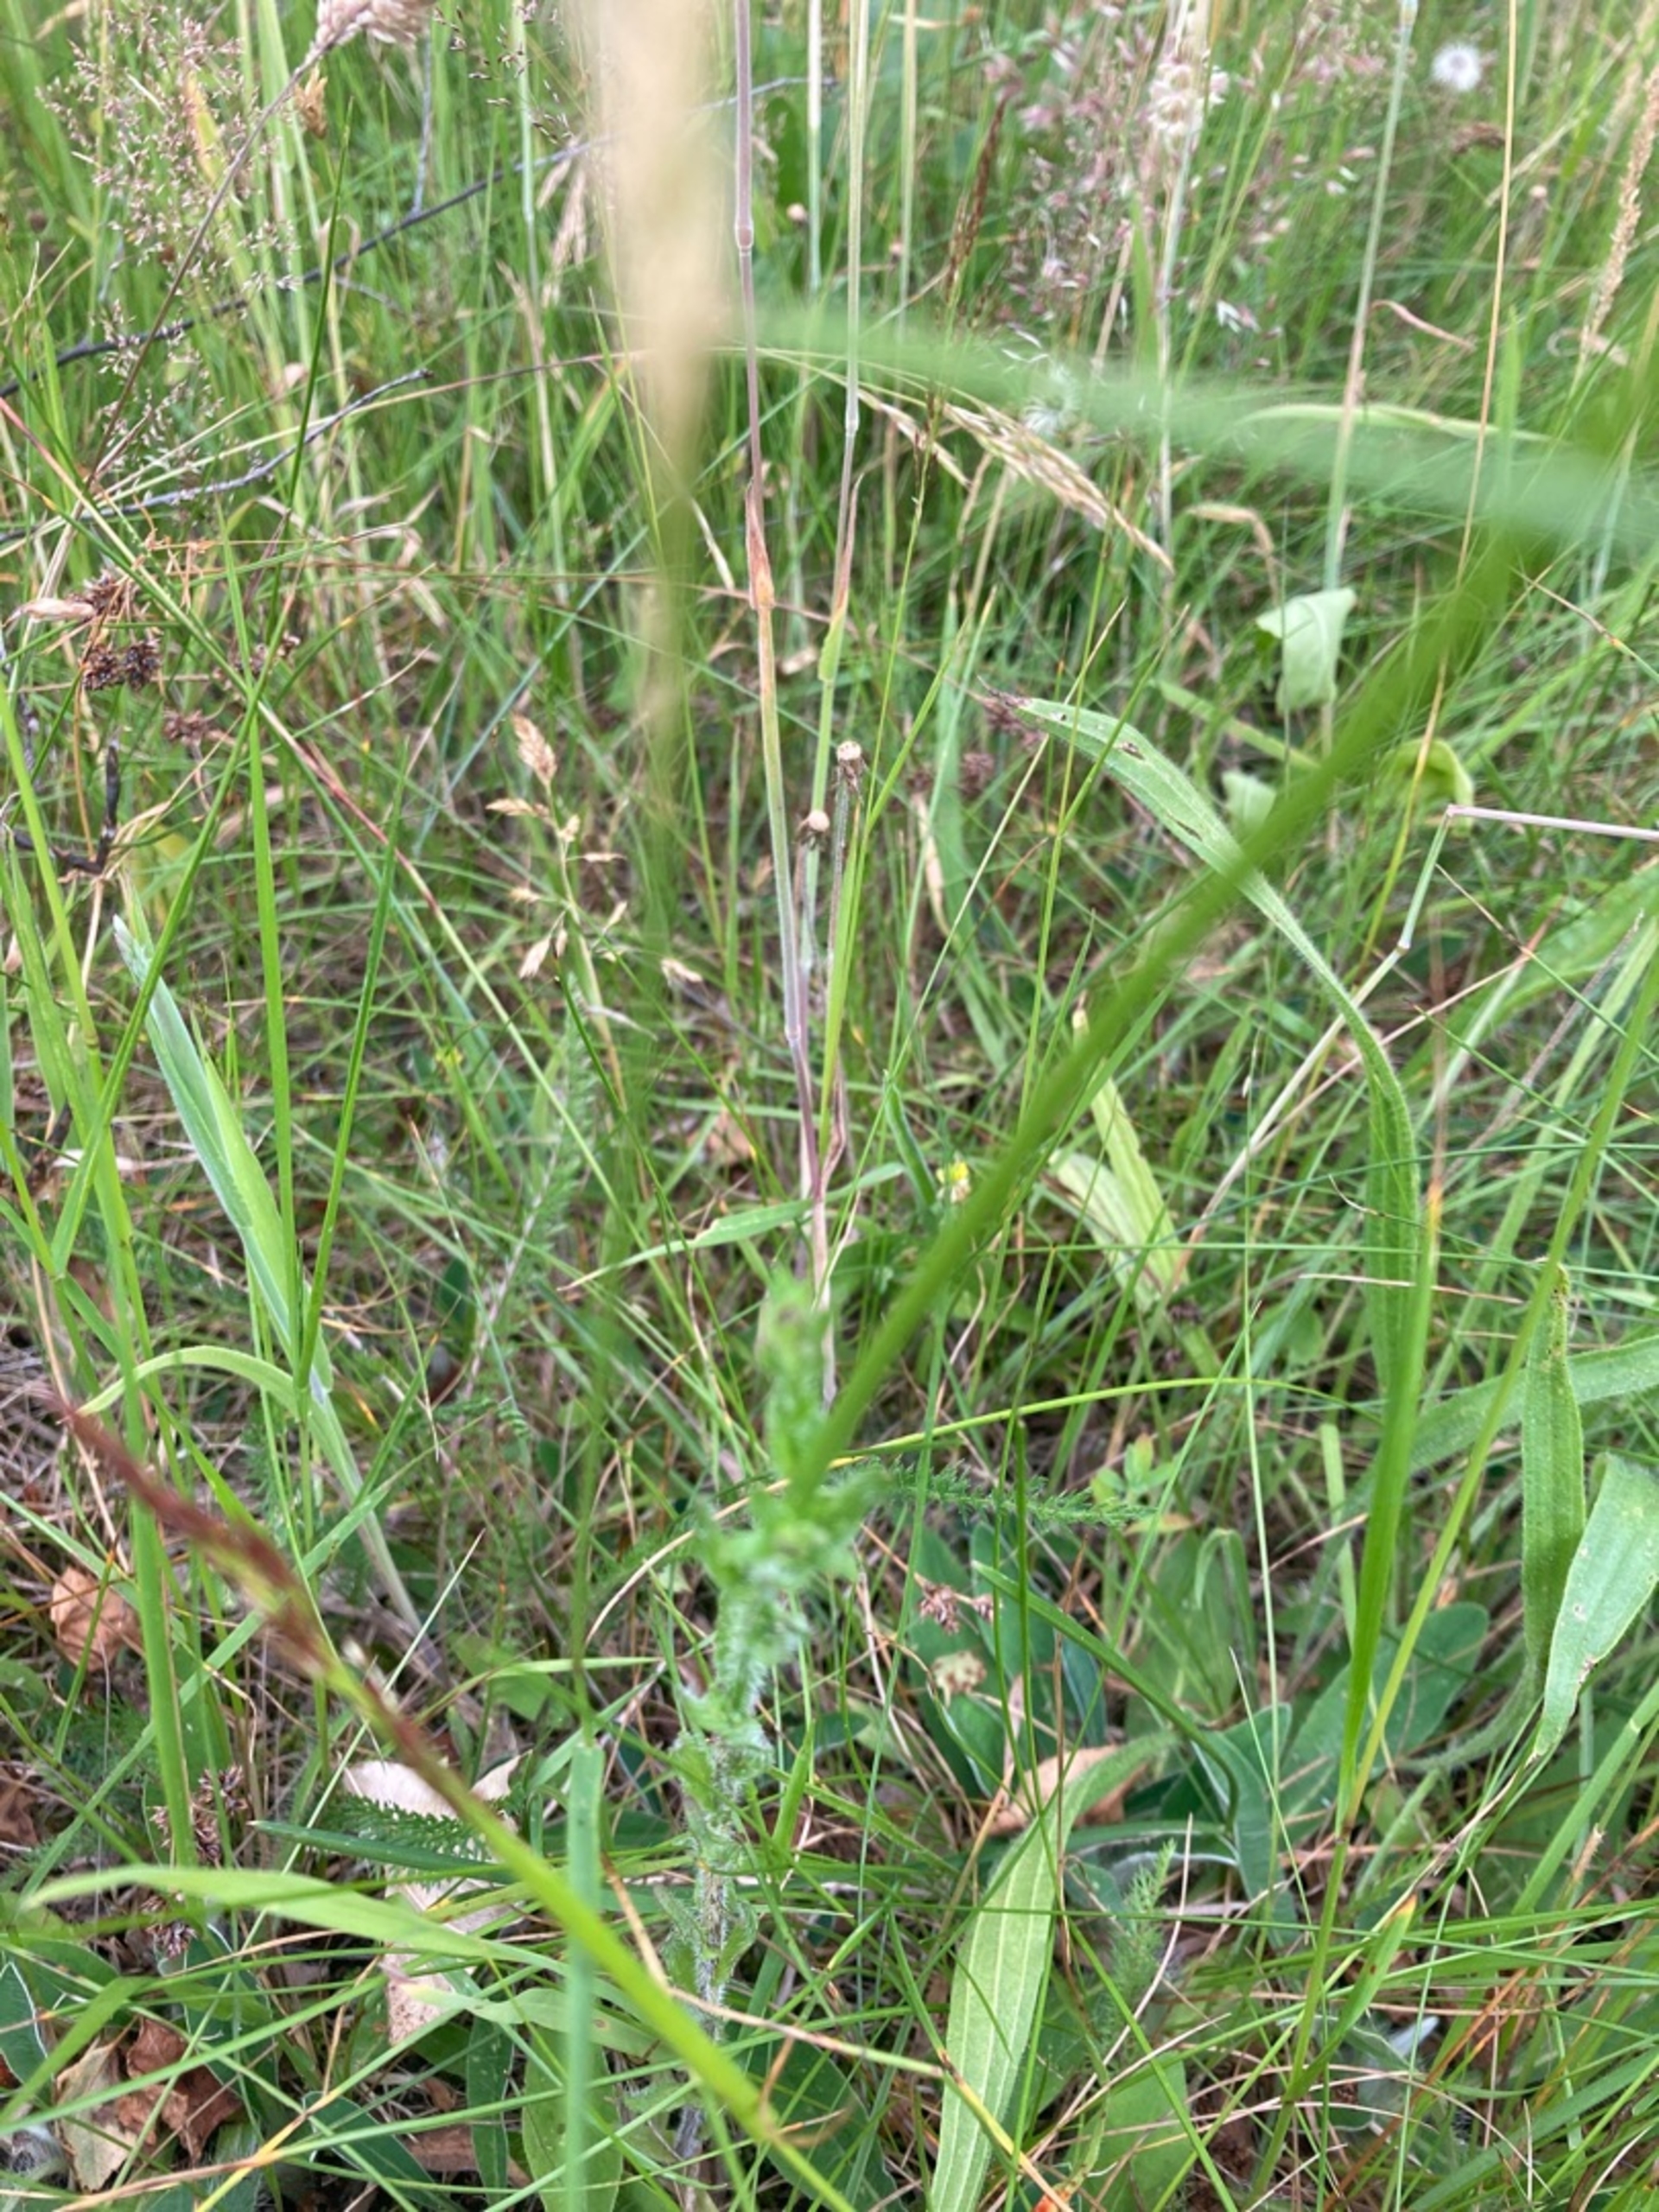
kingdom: Plantae
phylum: Tracheophyta
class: Magnoliopsida
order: Asterales
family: Campanulaceae
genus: Jasione
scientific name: Jasione montana
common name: Blåmunke
